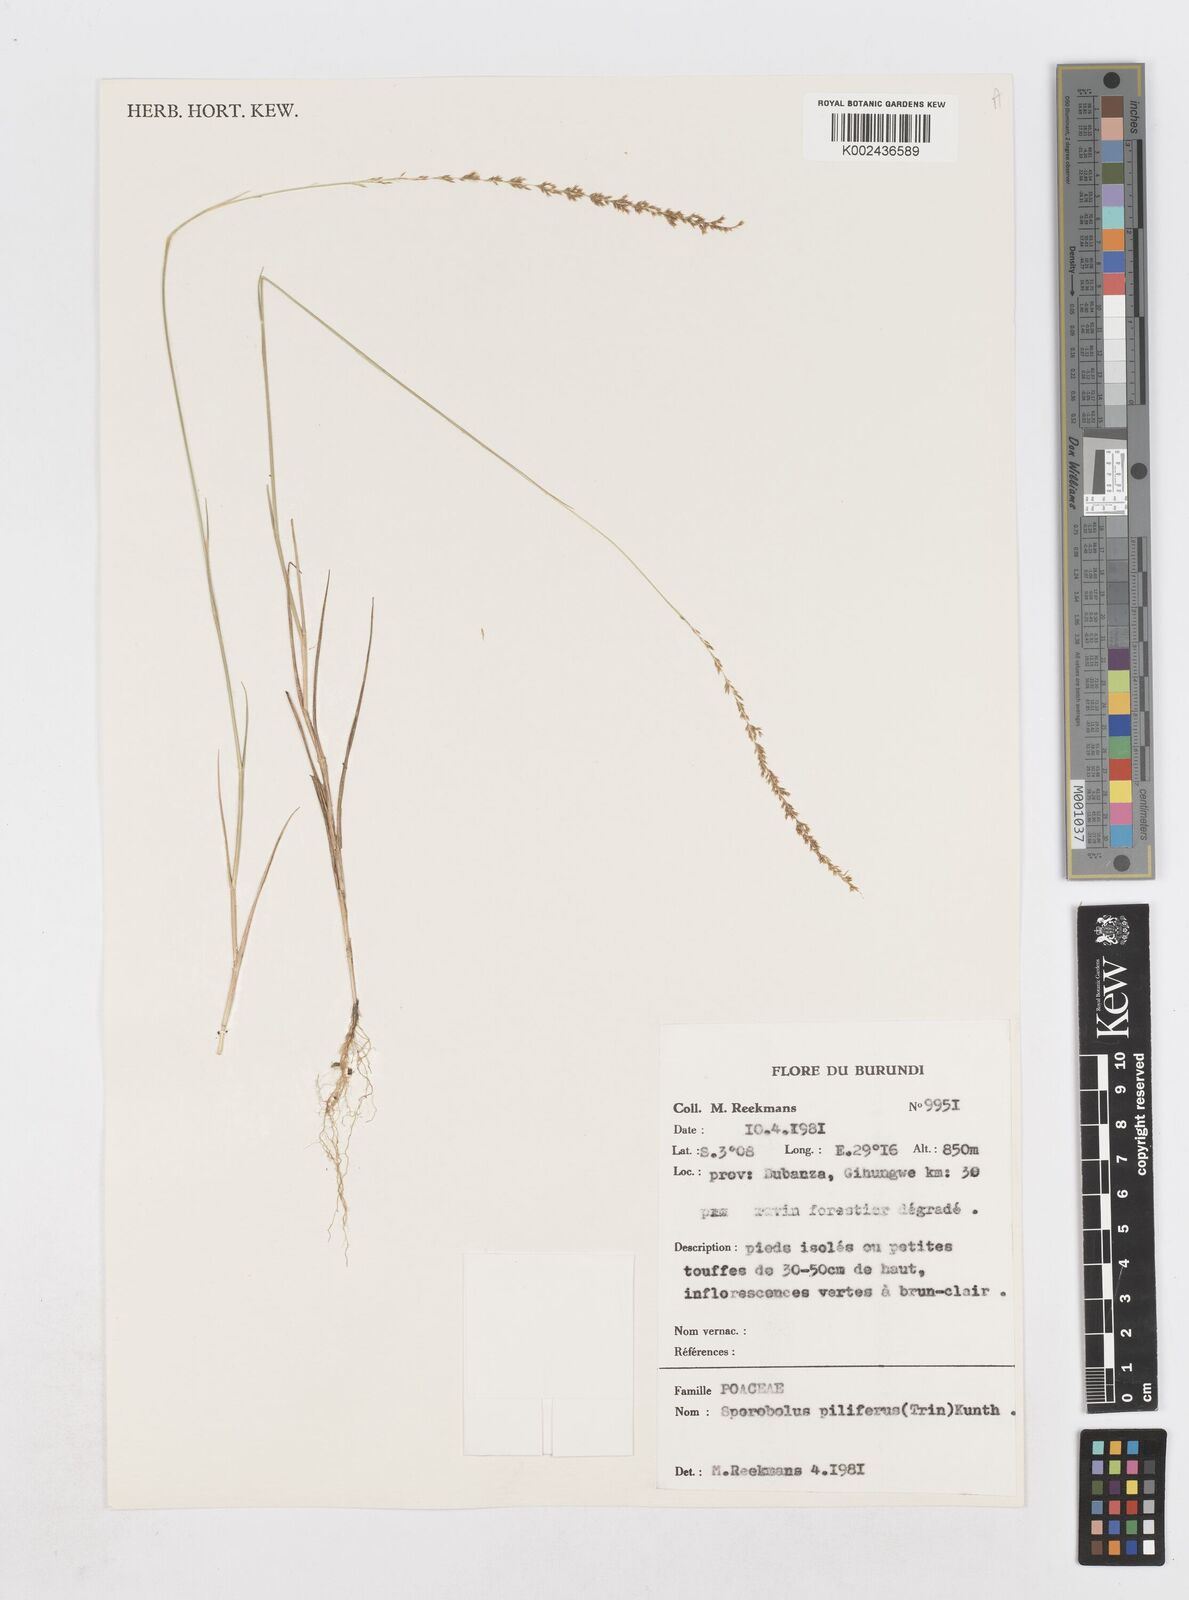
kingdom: Plantae
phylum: Tracheophyta
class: Liliopsida
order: Poales
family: Poaceae
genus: Sporobolus
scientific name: Sporobolus pilifer
